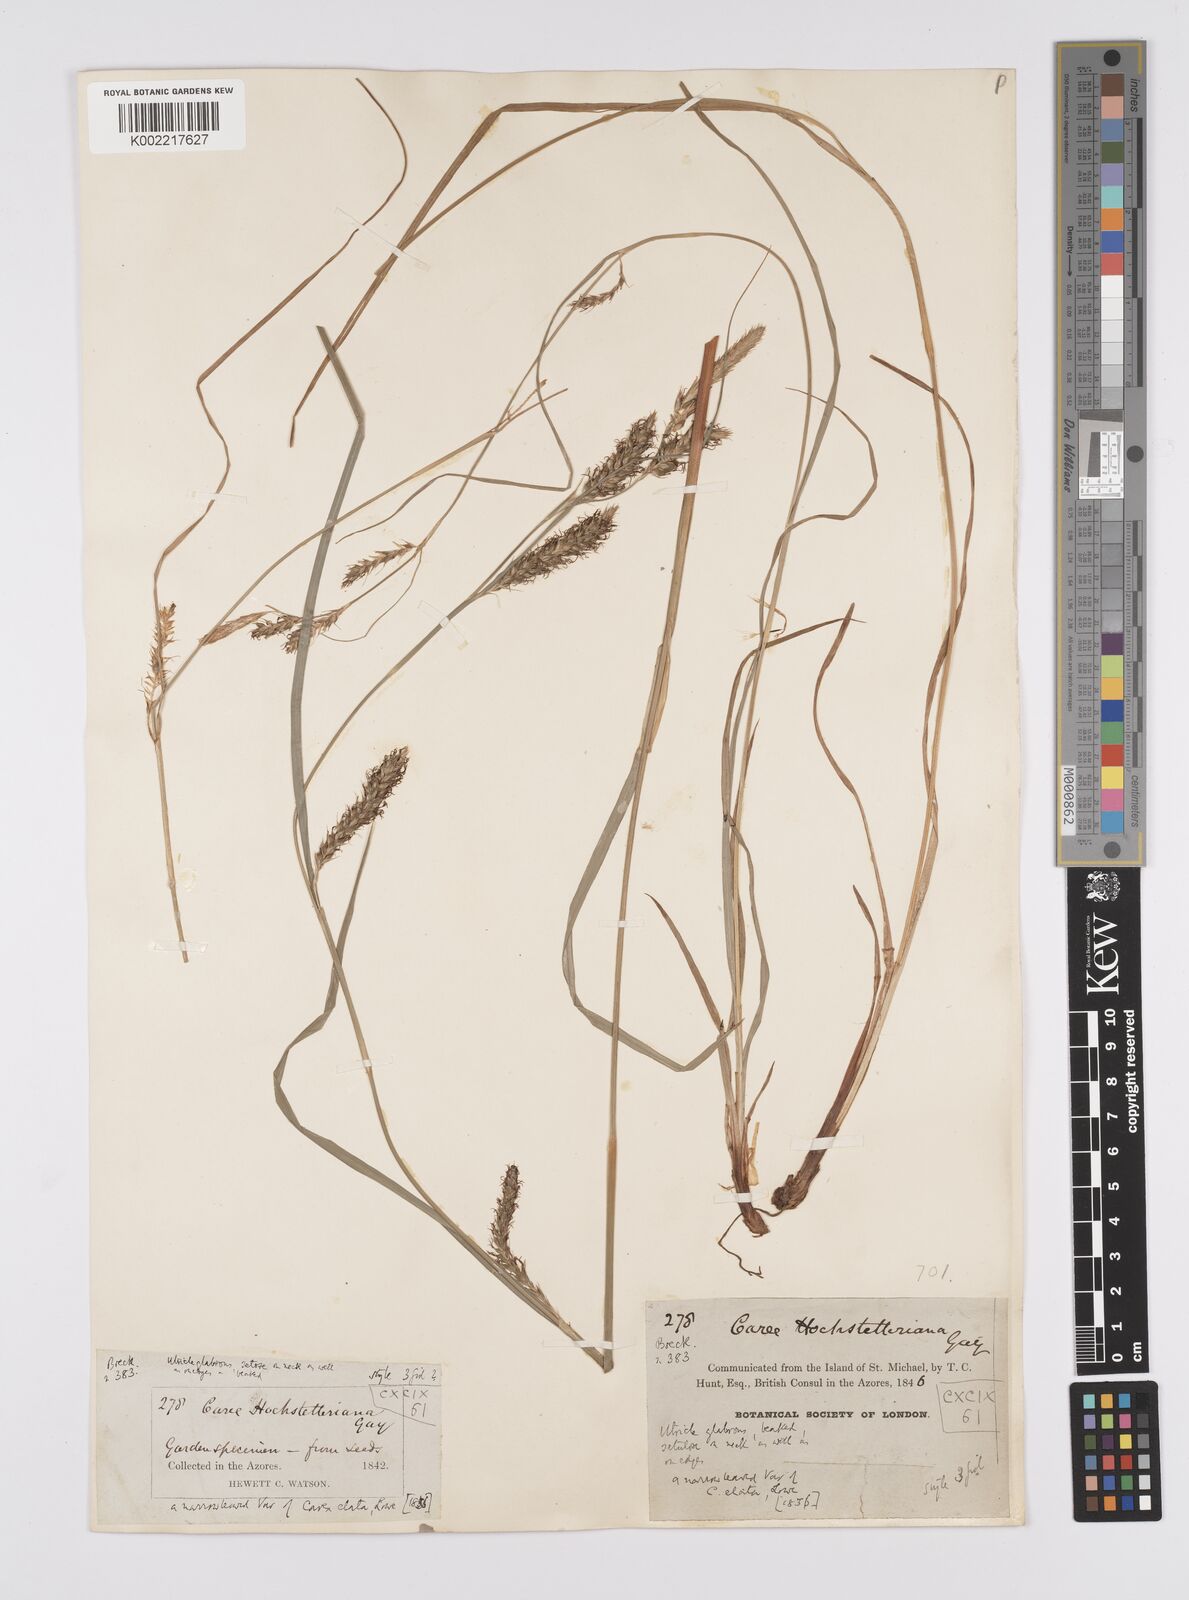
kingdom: Plantae
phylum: Tracheophyta
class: Liliopsida
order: Poales
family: Cyperaceae
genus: Carex
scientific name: Carex hochstetteriana
